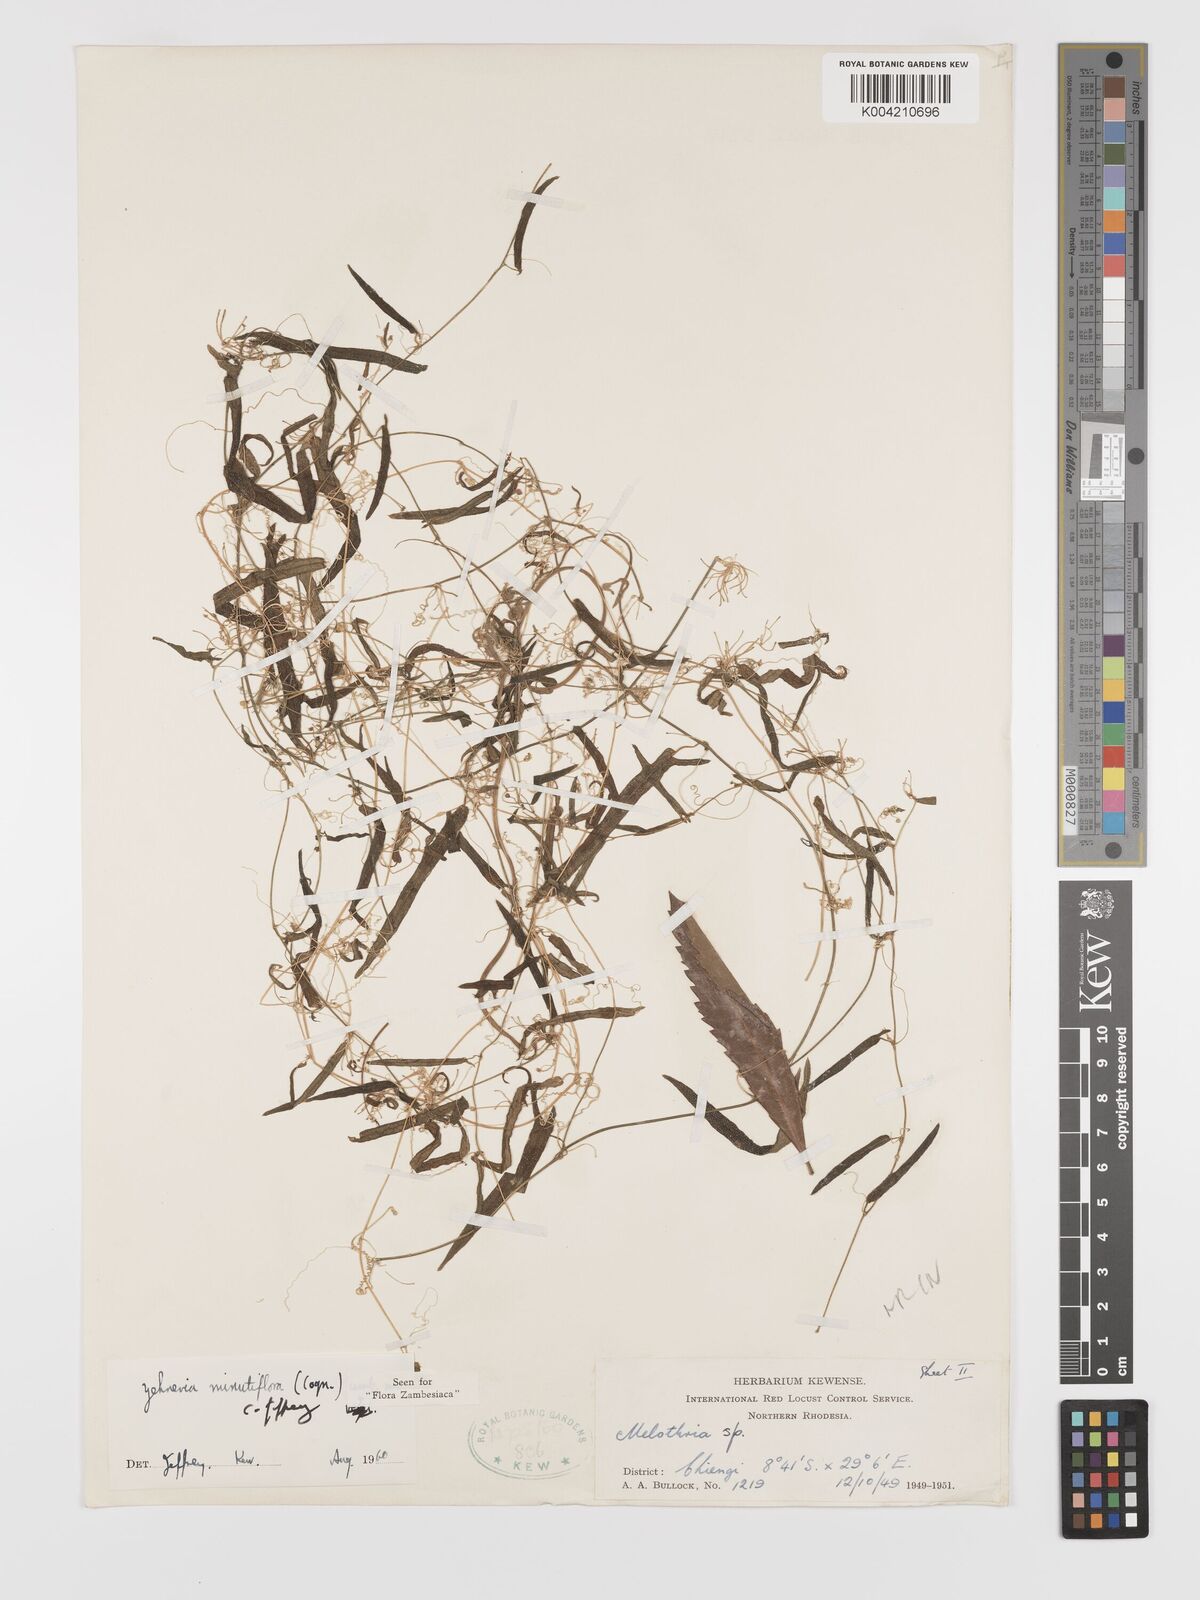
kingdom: Plantae
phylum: Tracheophyta
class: Magnoliopsida
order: Cucurbitales
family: Cucurbitaceae
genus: Zehneria
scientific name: Zehneria minutiflora
